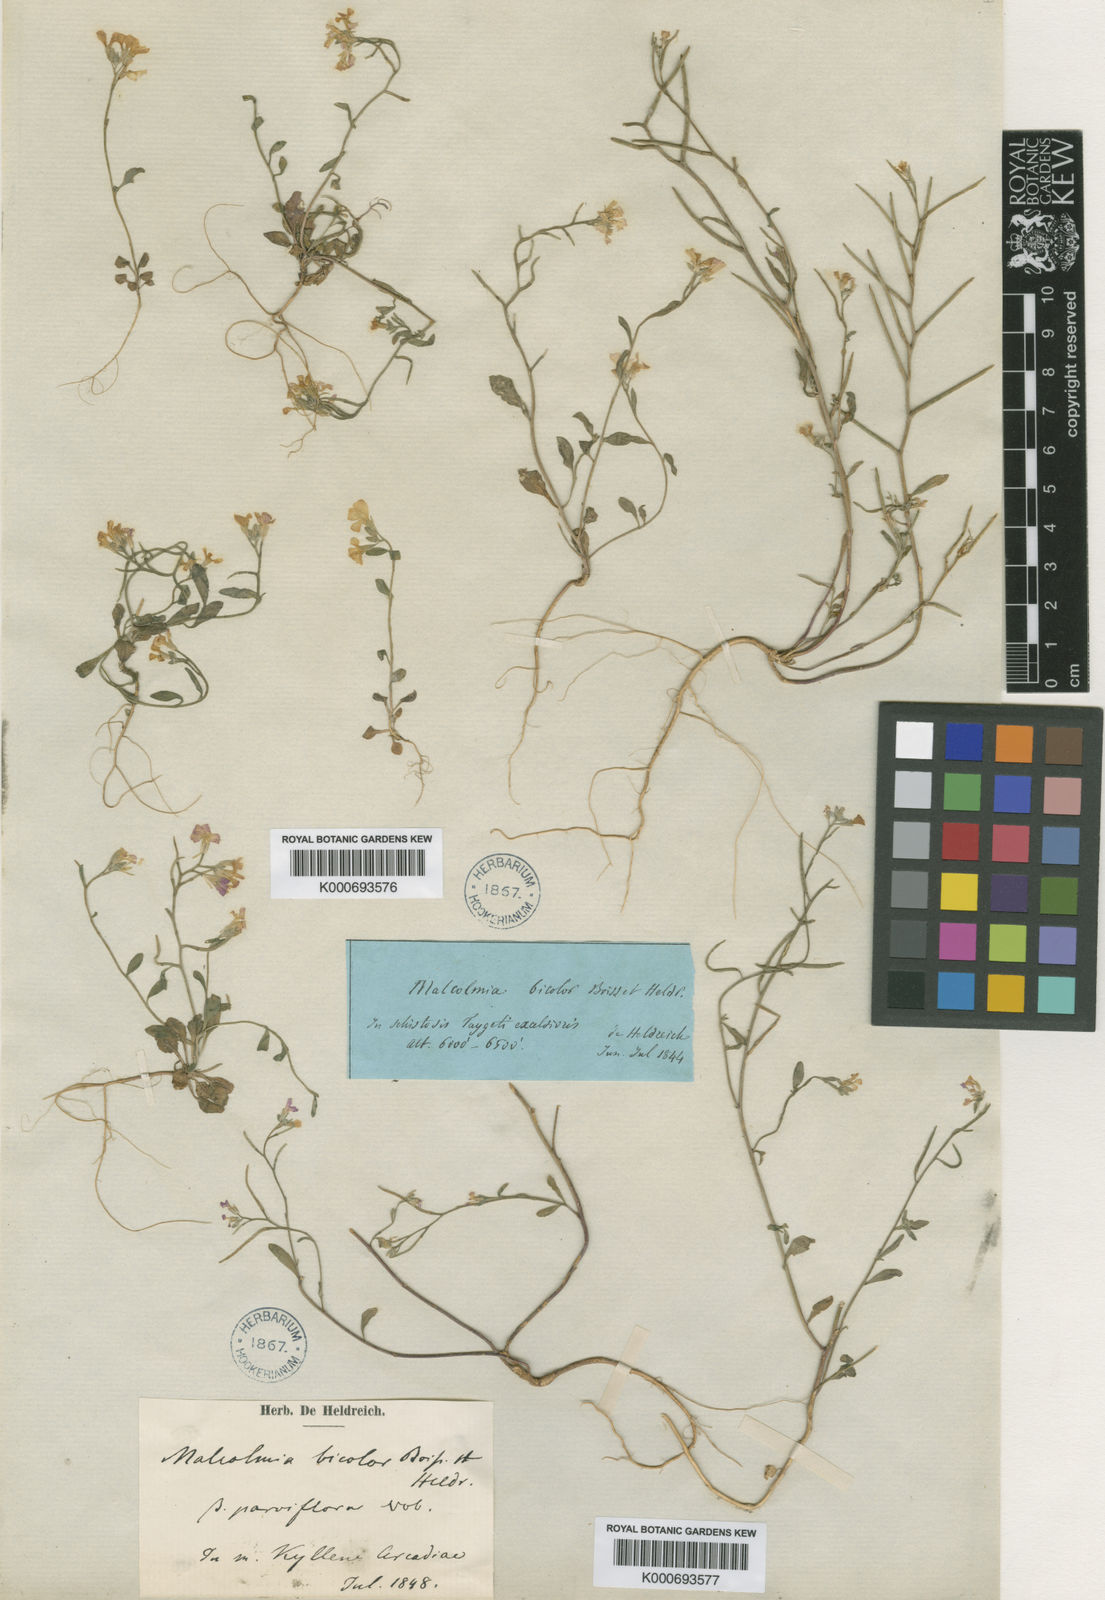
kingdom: Plantae
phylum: Tracheophyta
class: Magnoliopsida
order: Brassicales
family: Brassicaceae
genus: Malcolmia
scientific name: Malcolmia graeca
